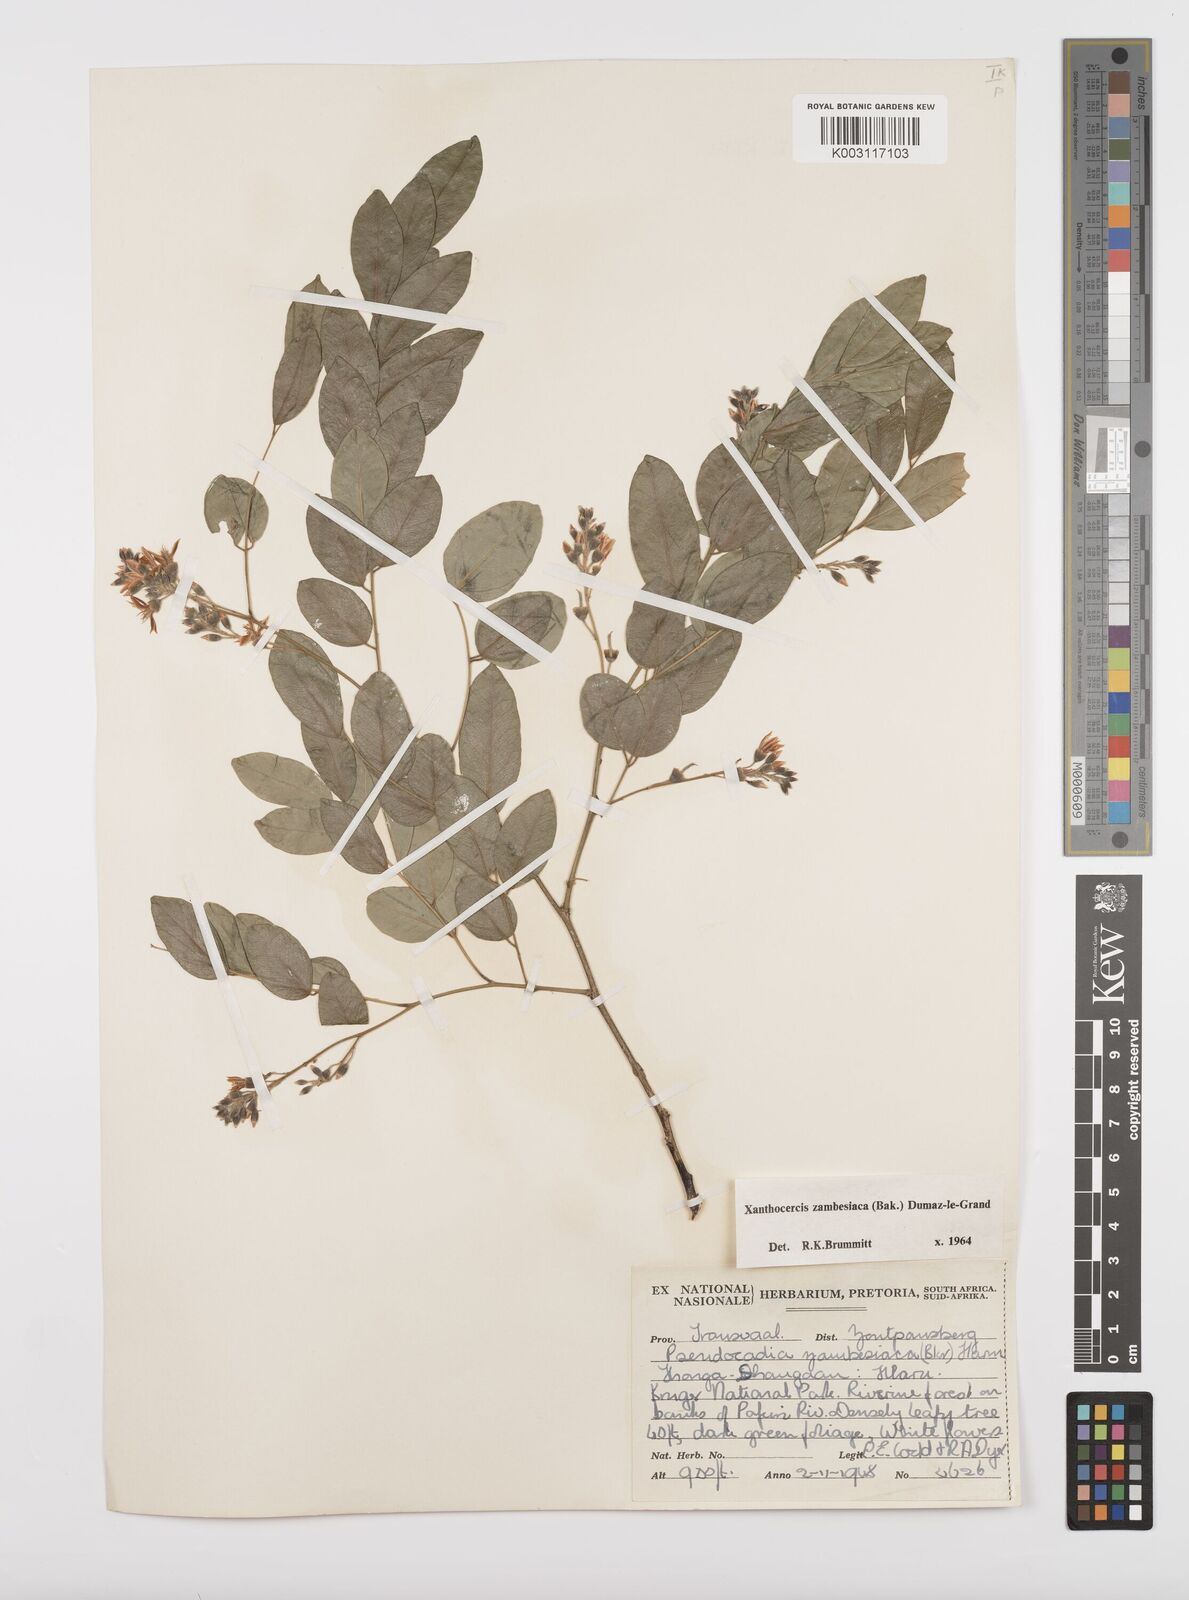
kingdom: Plantae
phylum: Tracheophyta
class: Magnoliopsida
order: Fabales
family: Fabaceae
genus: Xanthocercis
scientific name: Xanthocercis zambesiaca
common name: Nyala-tree
